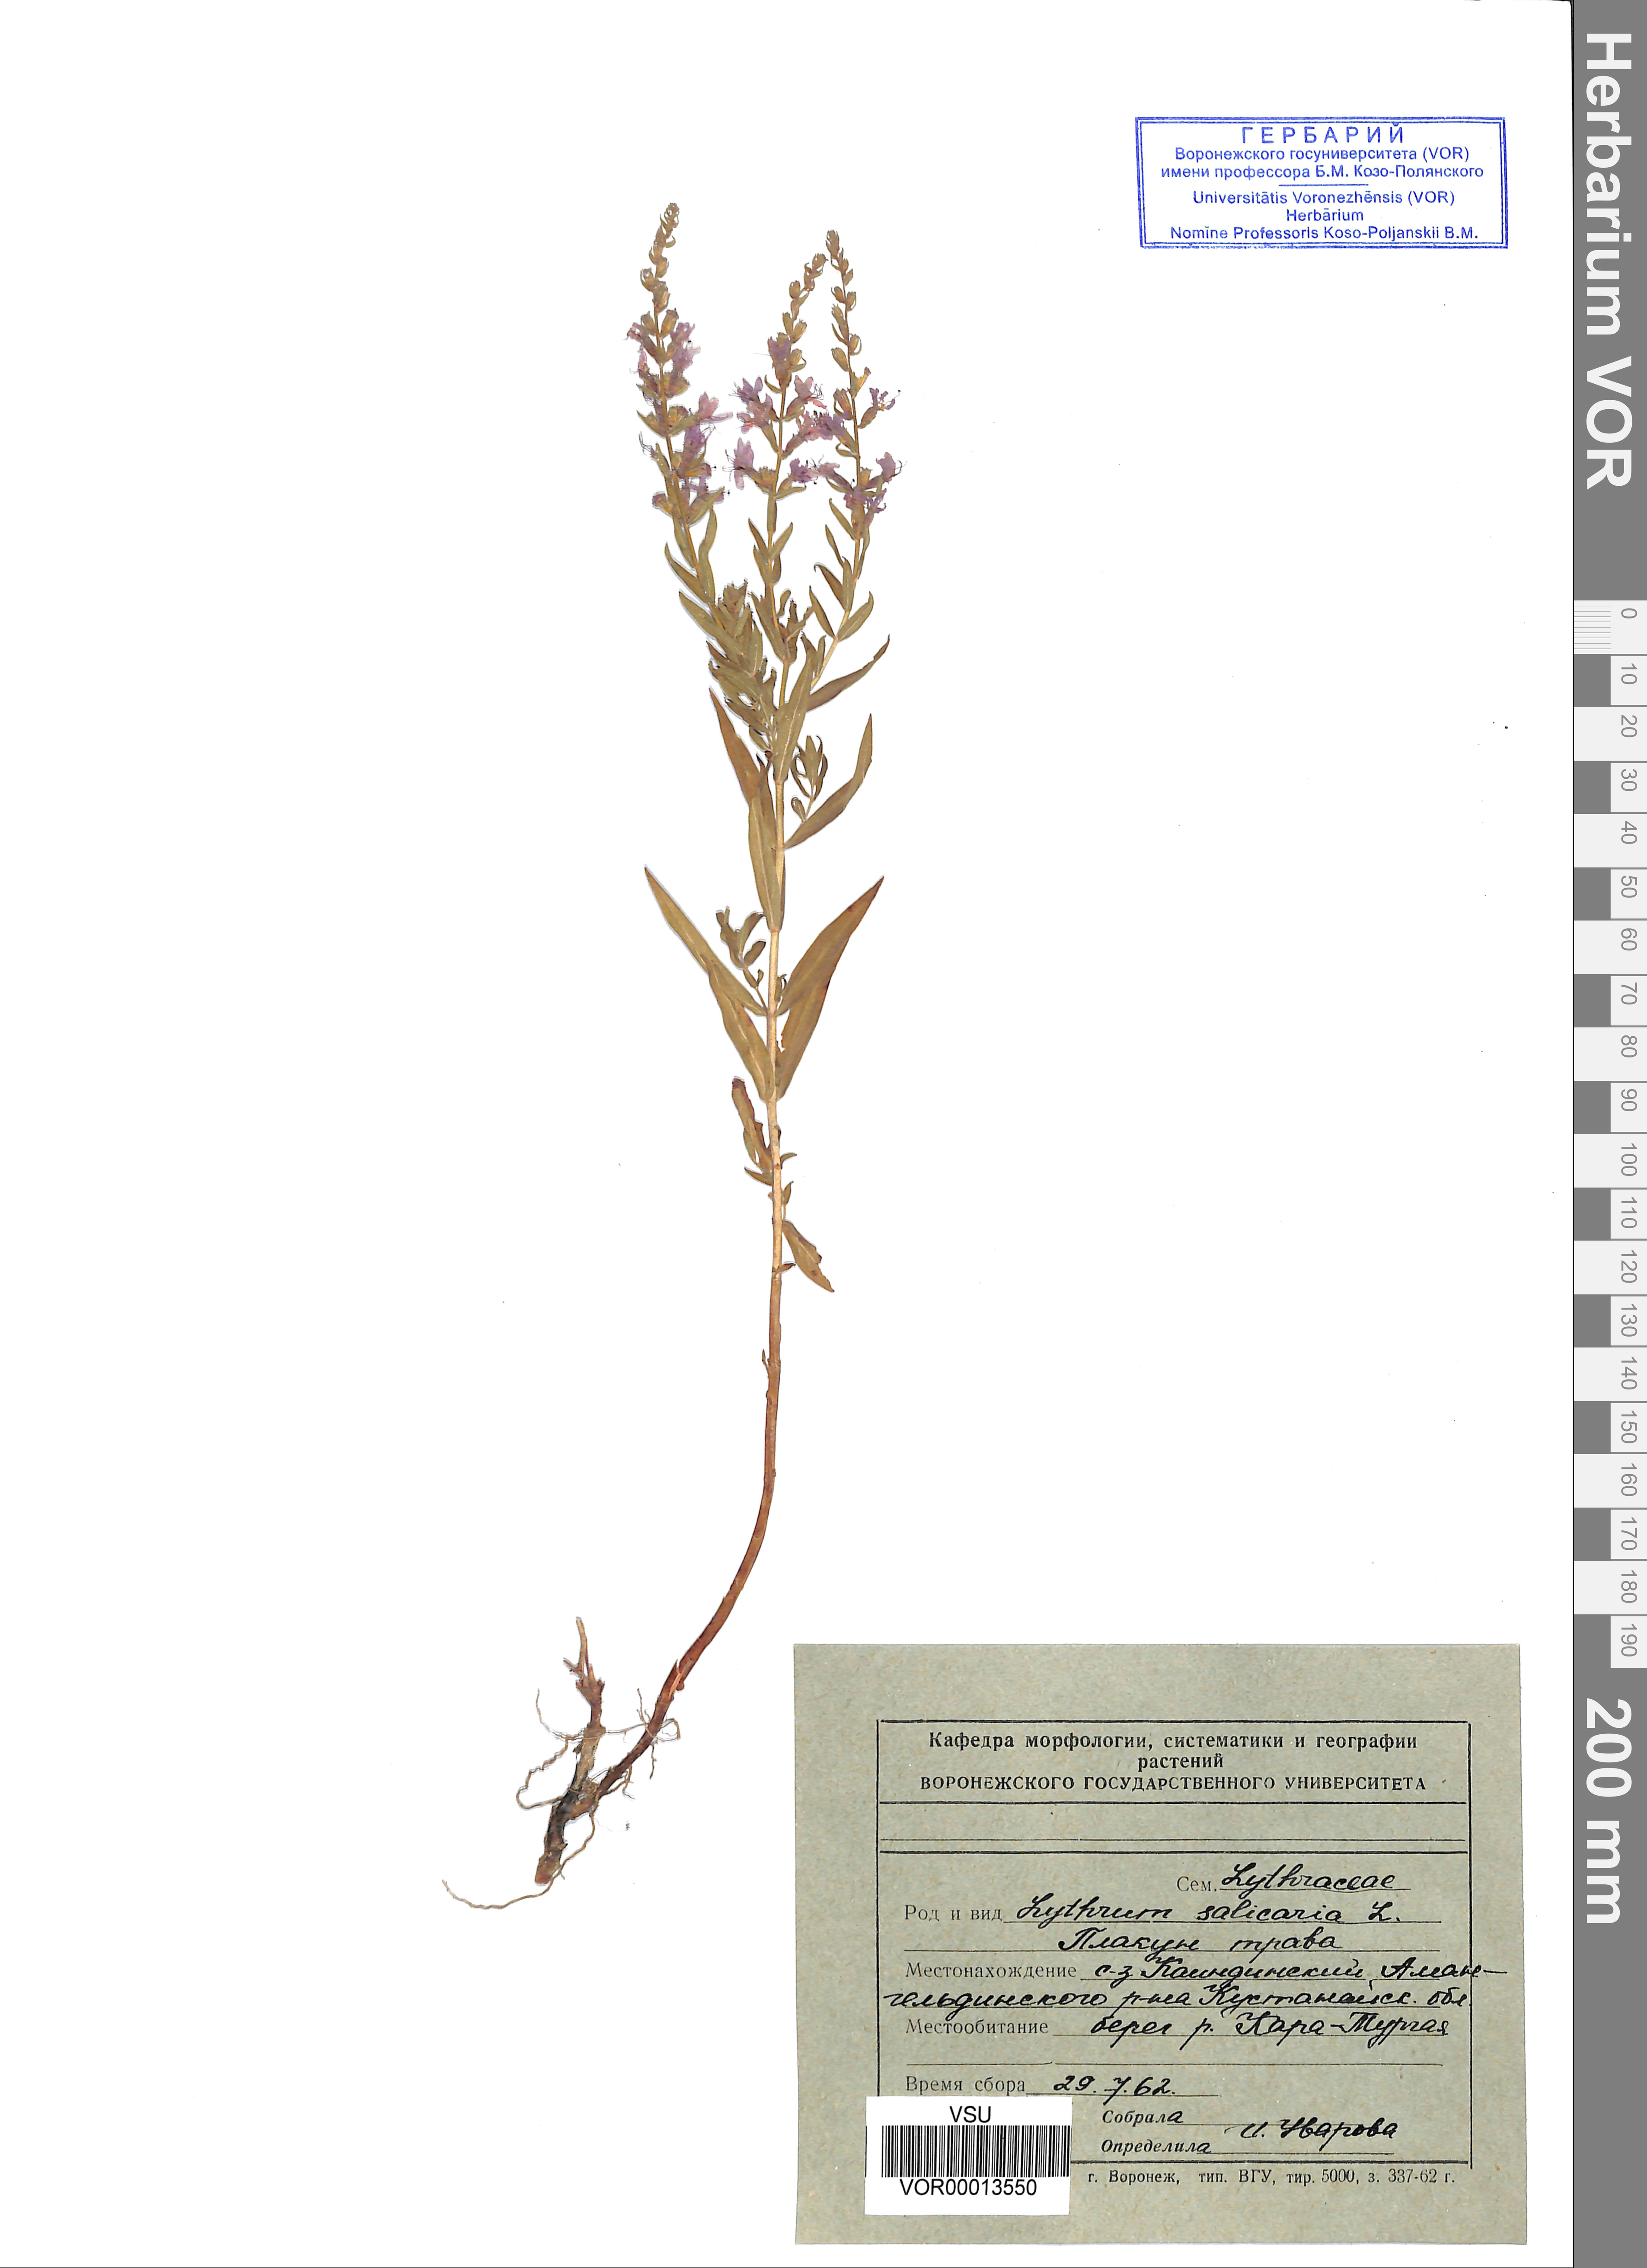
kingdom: Plantae
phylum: Tracheophyta
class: Magnoliopsida
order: Myrtales
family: Lythraceae
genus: Lythrum
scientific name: Lythrum salicaria
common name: Purple loosestrife
